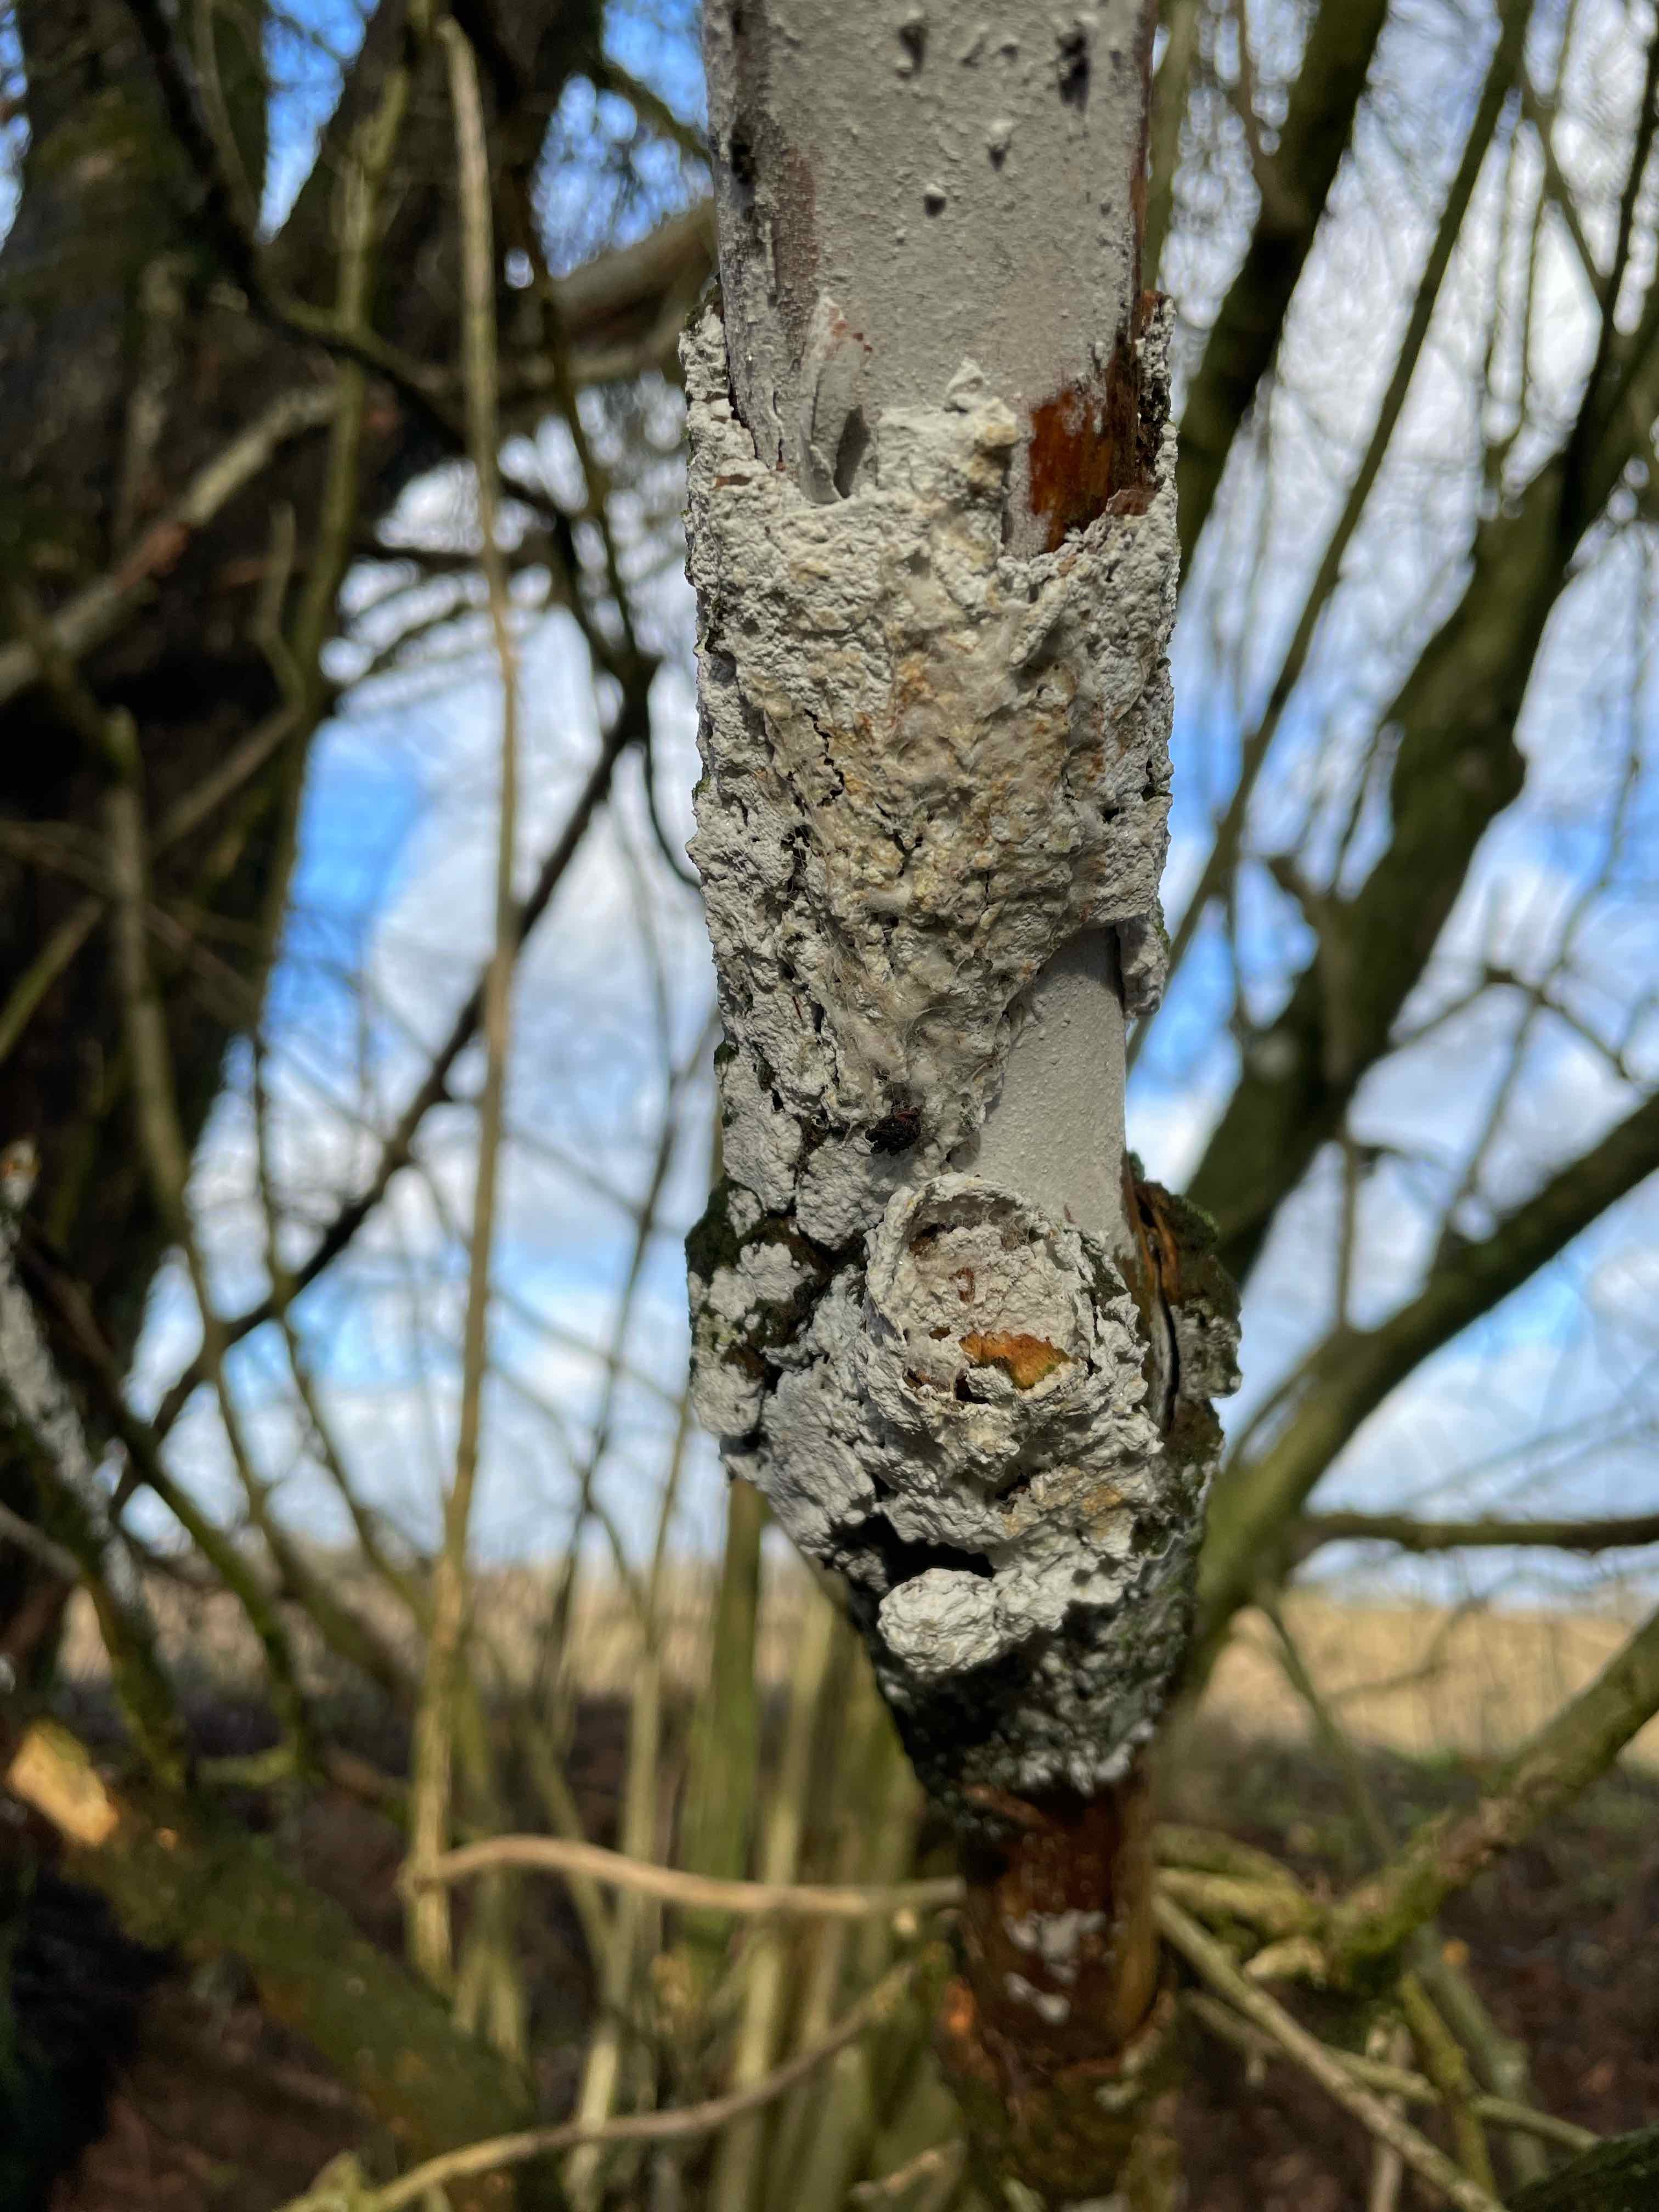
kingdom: Fungi
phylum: Basidiomycota
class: Agaricomycetes
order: Corticiales
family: Corticiaceae
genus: Lyomyces
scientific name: Lyomyces sambuci
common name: almindelig hyldehinde
